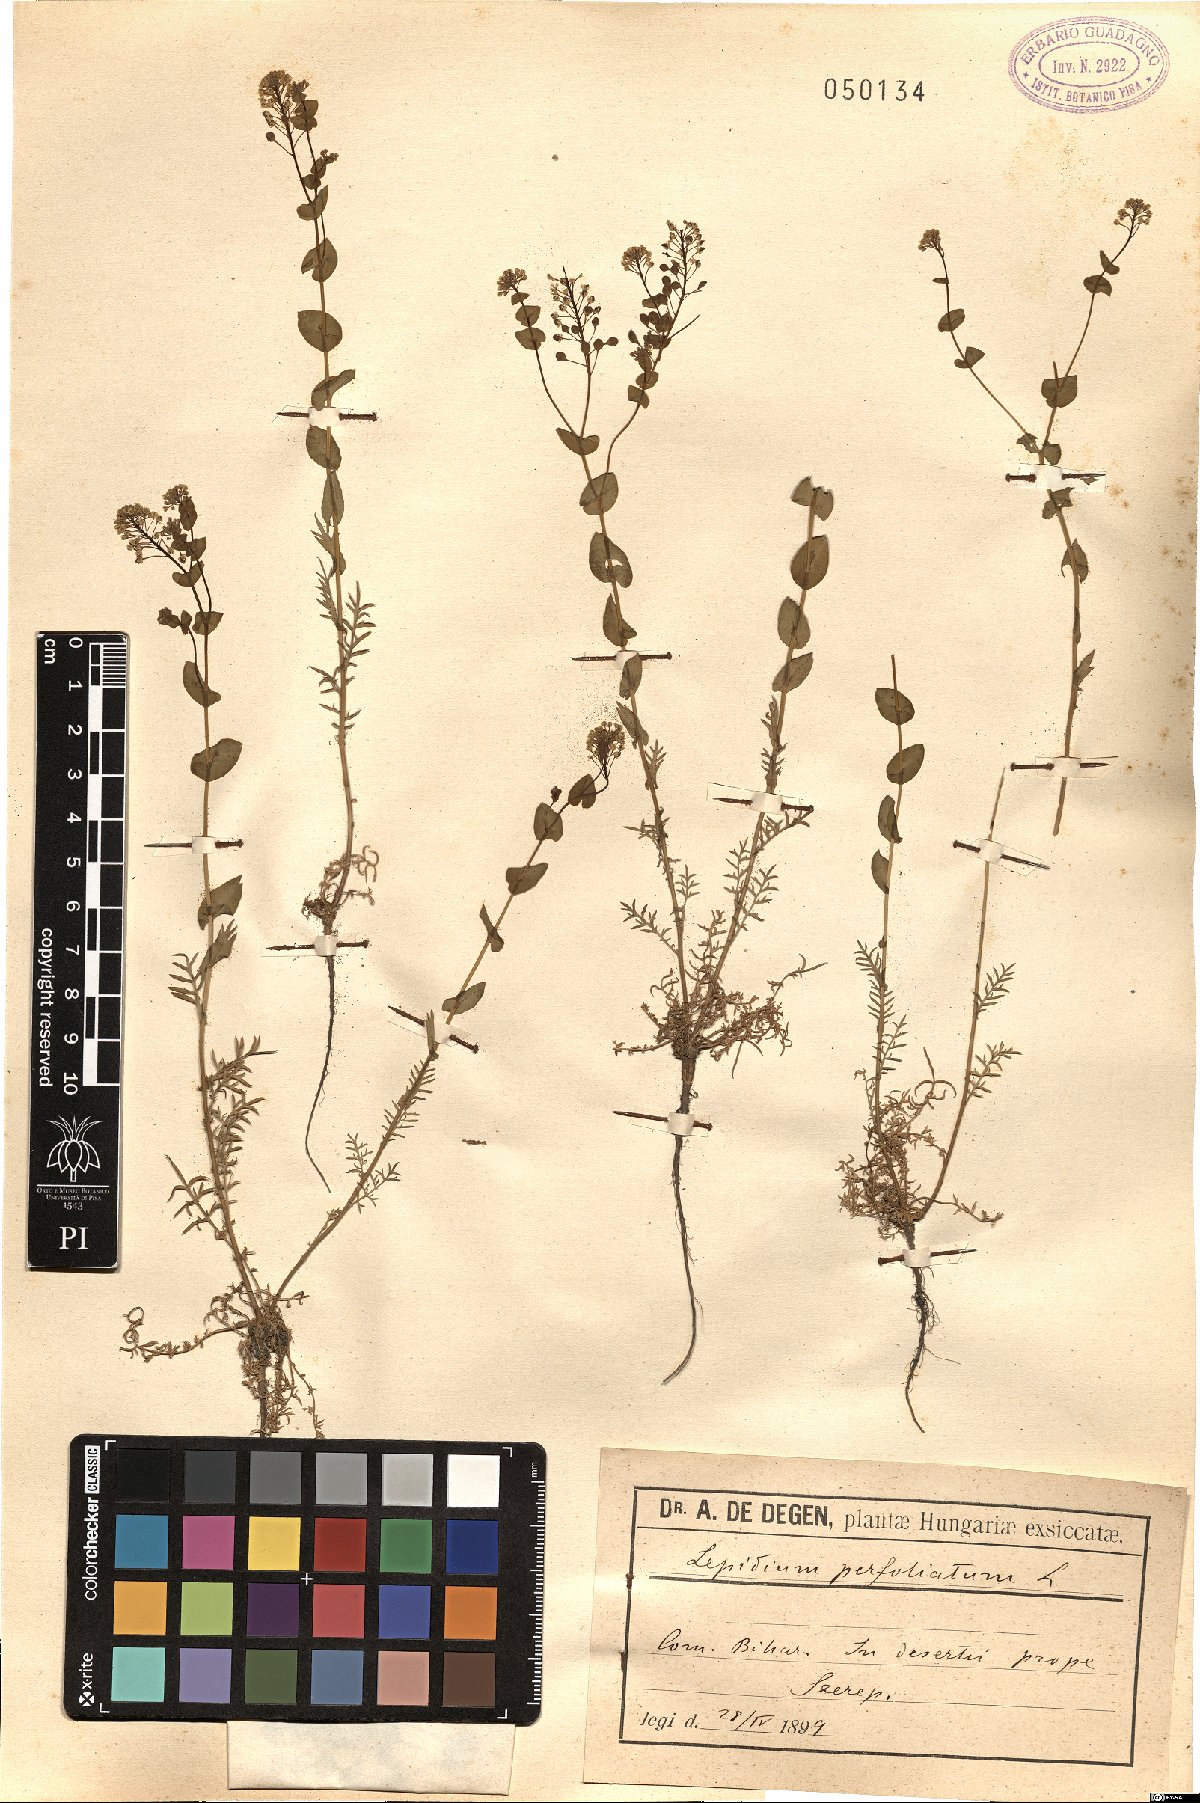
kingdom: Plantae
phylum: Tracheophyta
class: Magnoliopsida
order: Brassicales
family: Brassicaceae
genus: Lepidium
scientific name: Lepidium perfoliatum
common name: Perfoliate pepperwort
